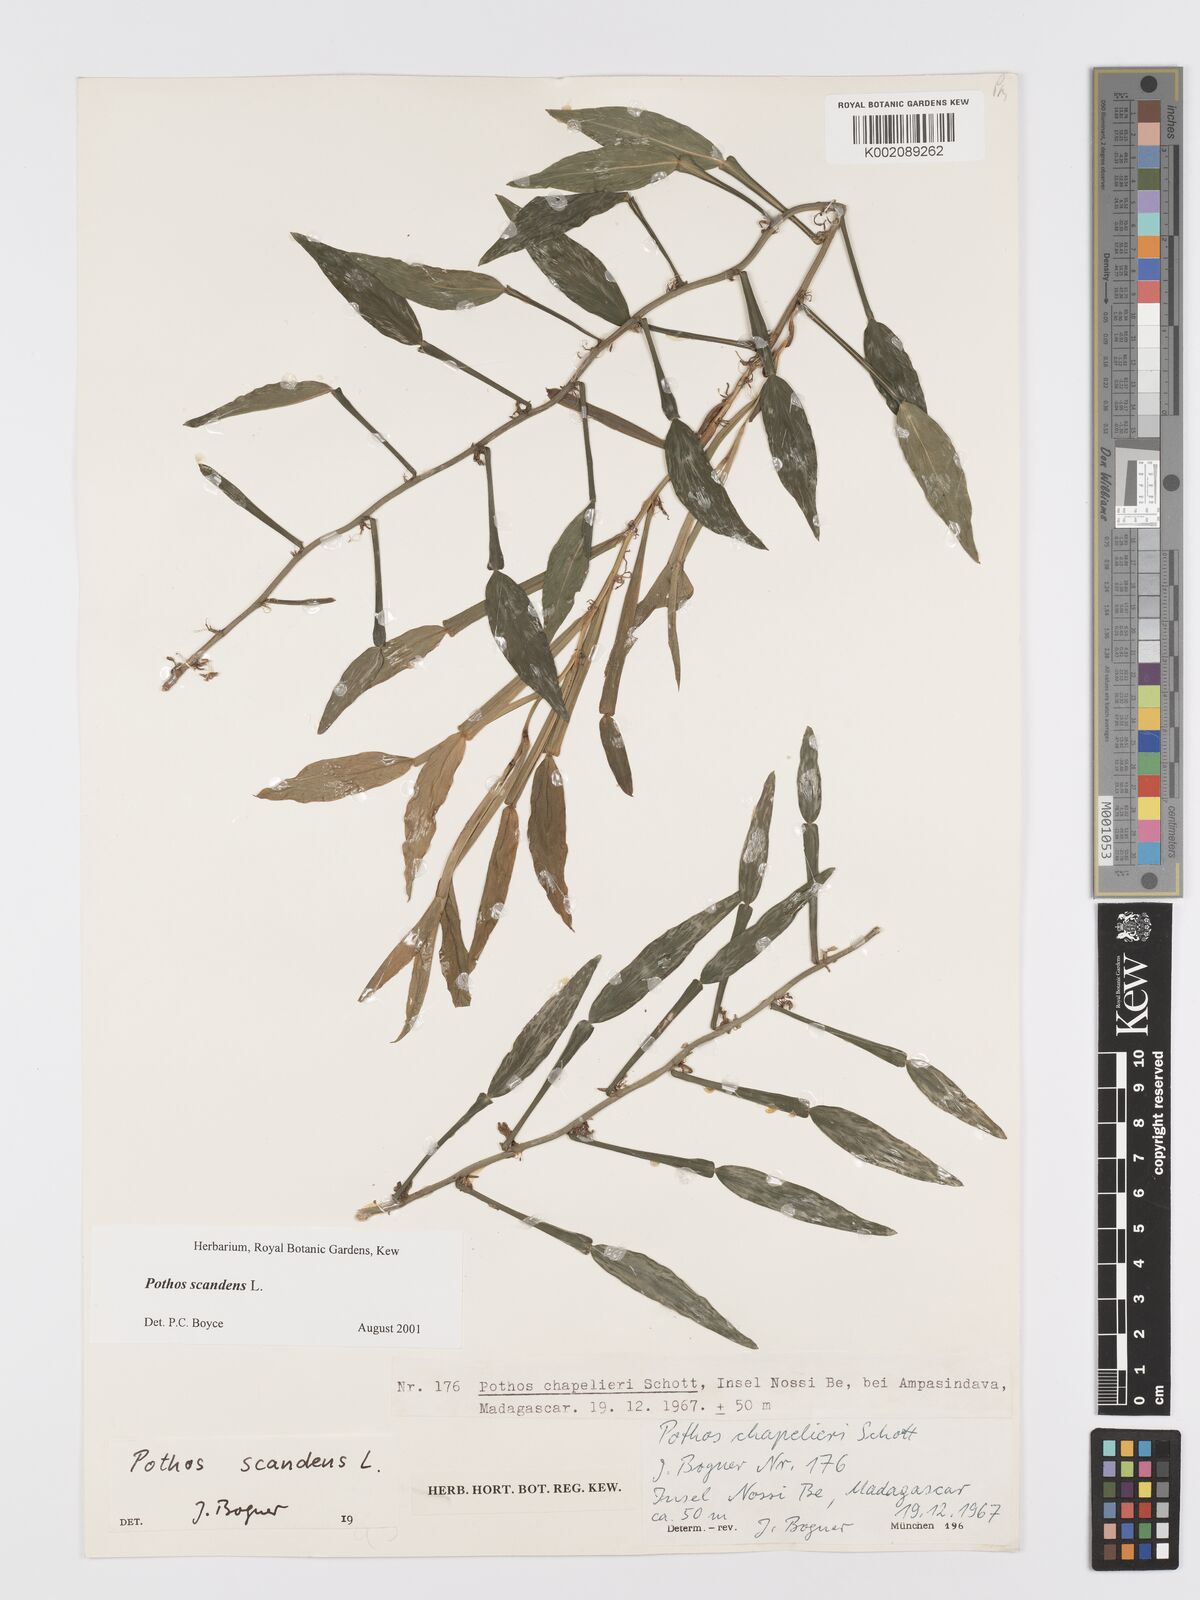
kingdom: Plantae
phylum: Tracheophyta
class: Liliopsida
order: Alismatales
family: Araceae
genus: Pothos
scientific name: Pothos scandens
